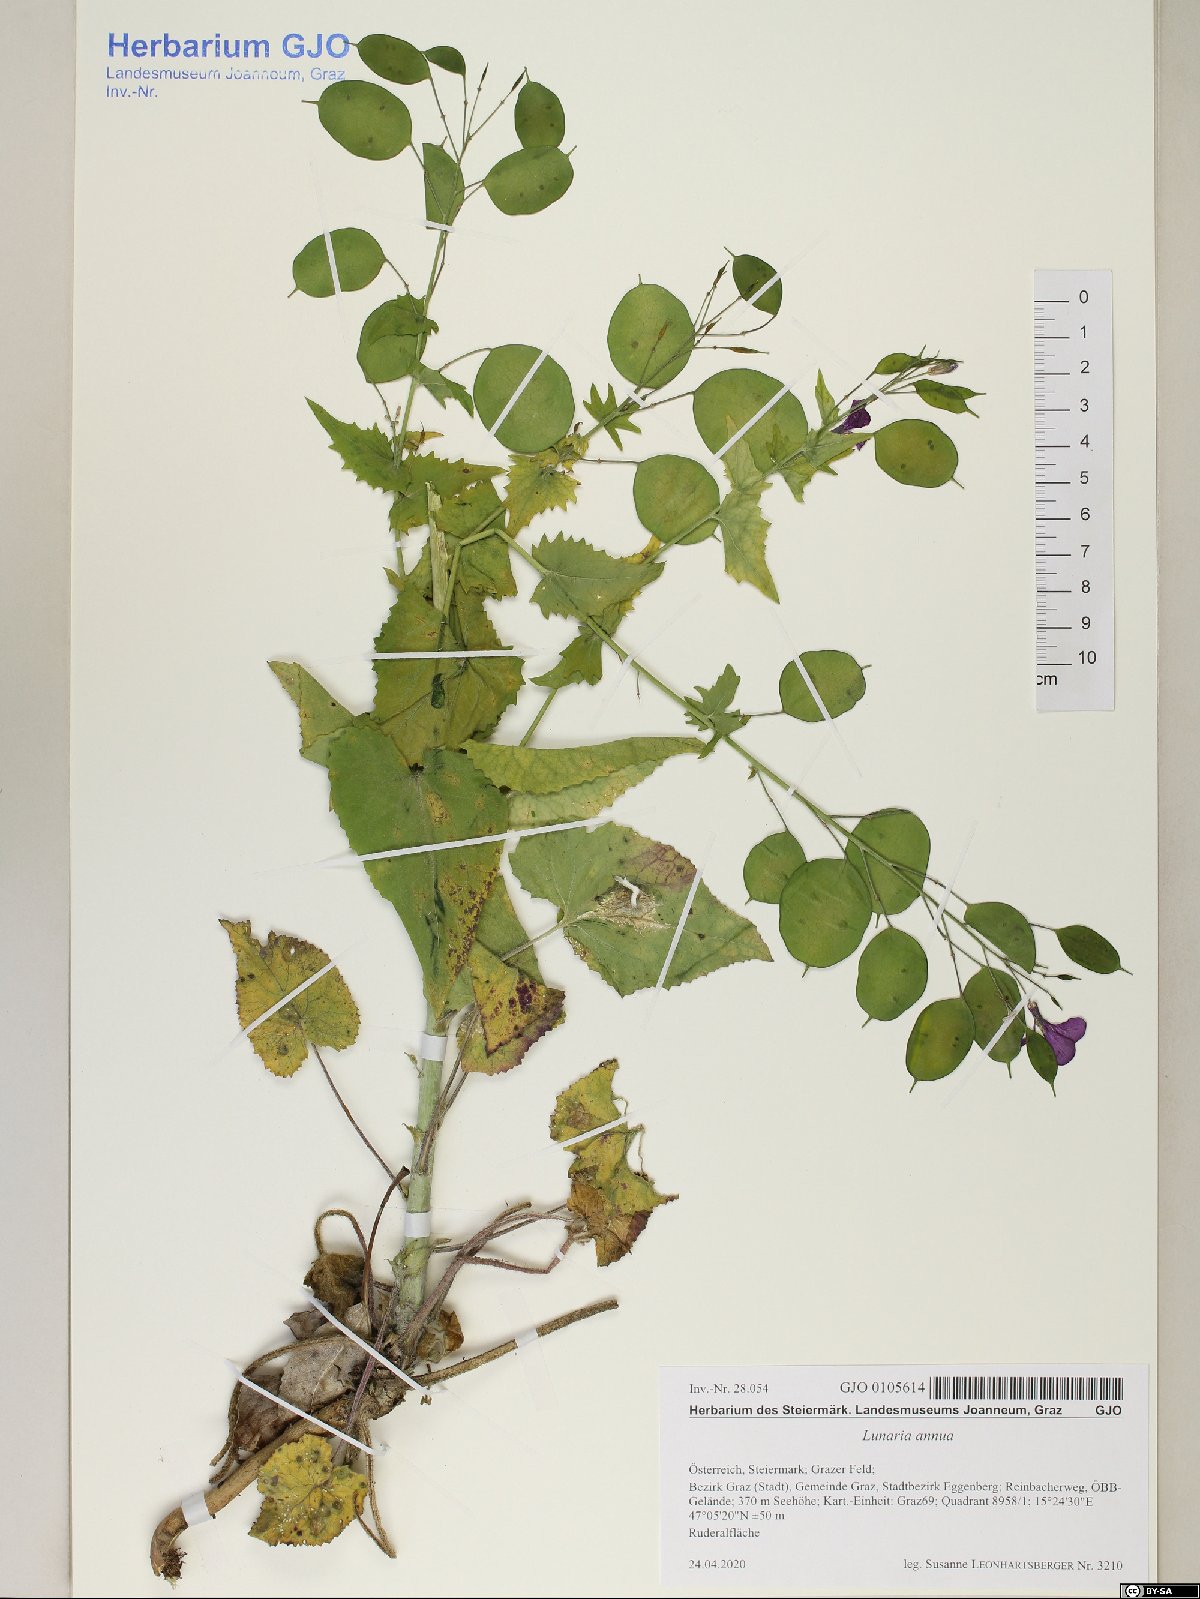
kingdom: Plantae
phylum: Tracheophyta
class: Magnoliopsida
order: Brassicales
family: Brassicaceae
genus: Lunaria
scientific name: Lunaria annua
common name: Honesty
